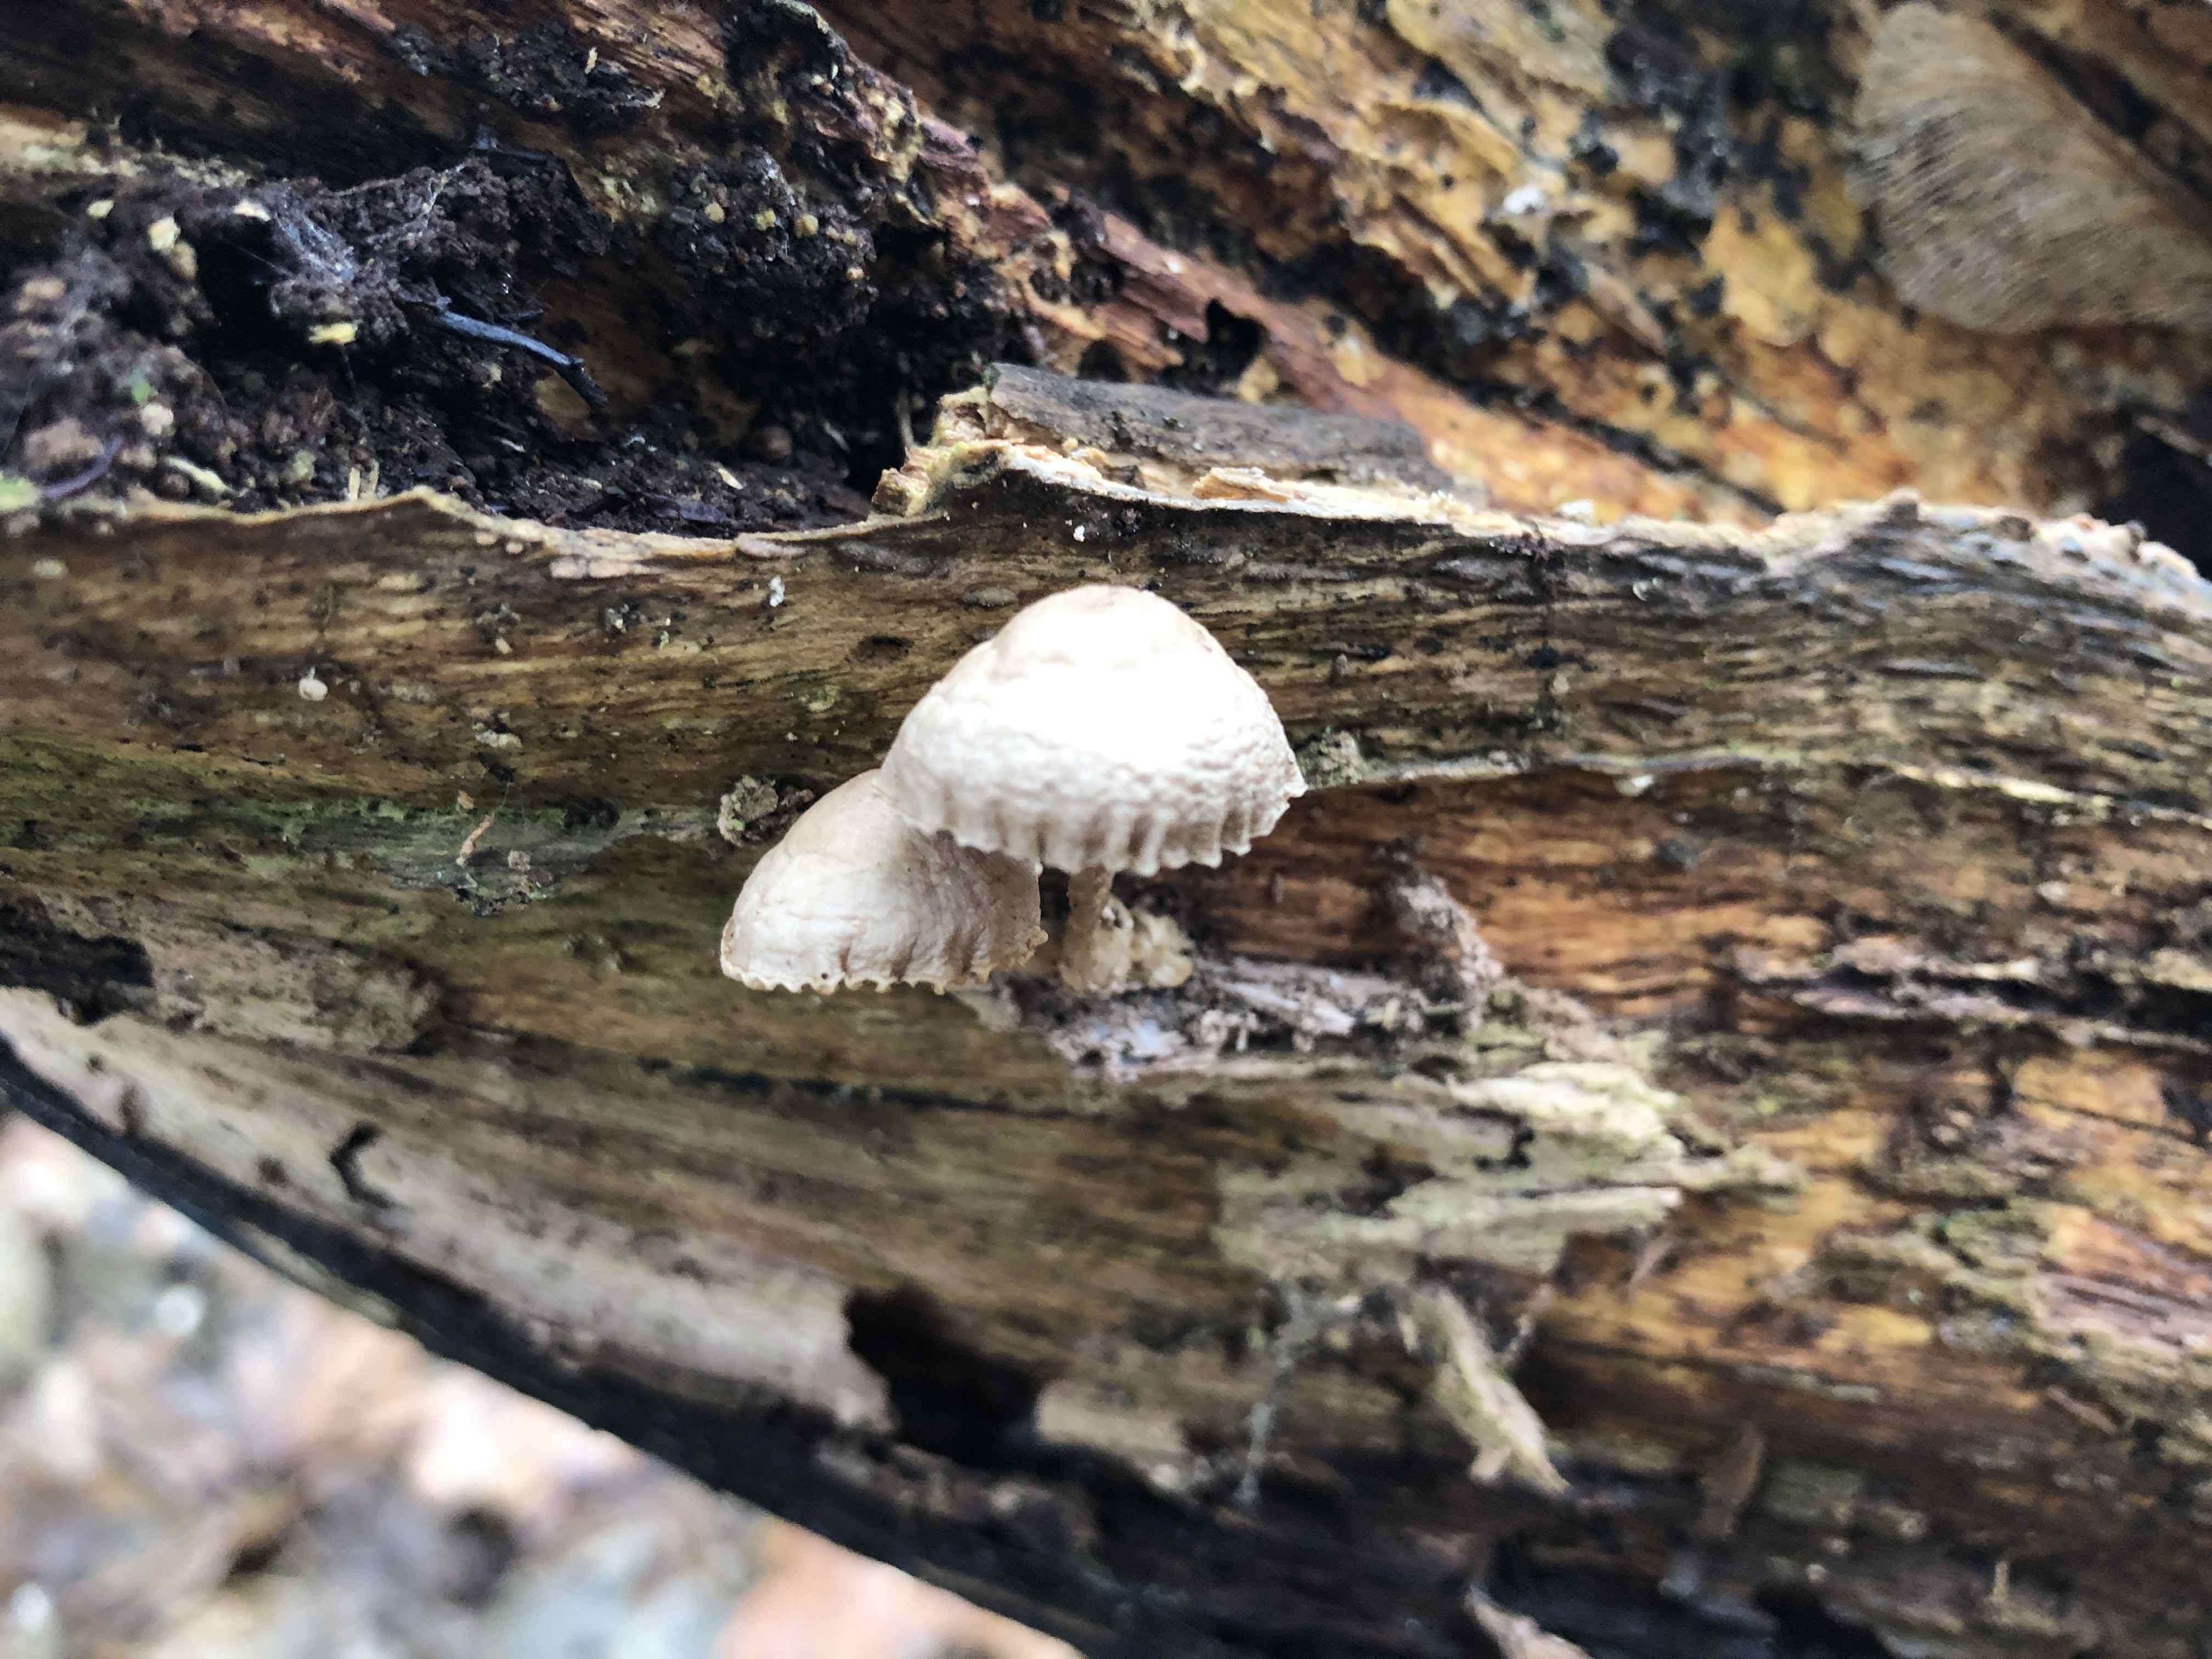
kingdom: Fungi
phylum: Basidiomycota
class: Agaricomycetes
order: Agaricales
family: Mycenaceae
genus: Mycena
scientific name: Mycena galericulata
